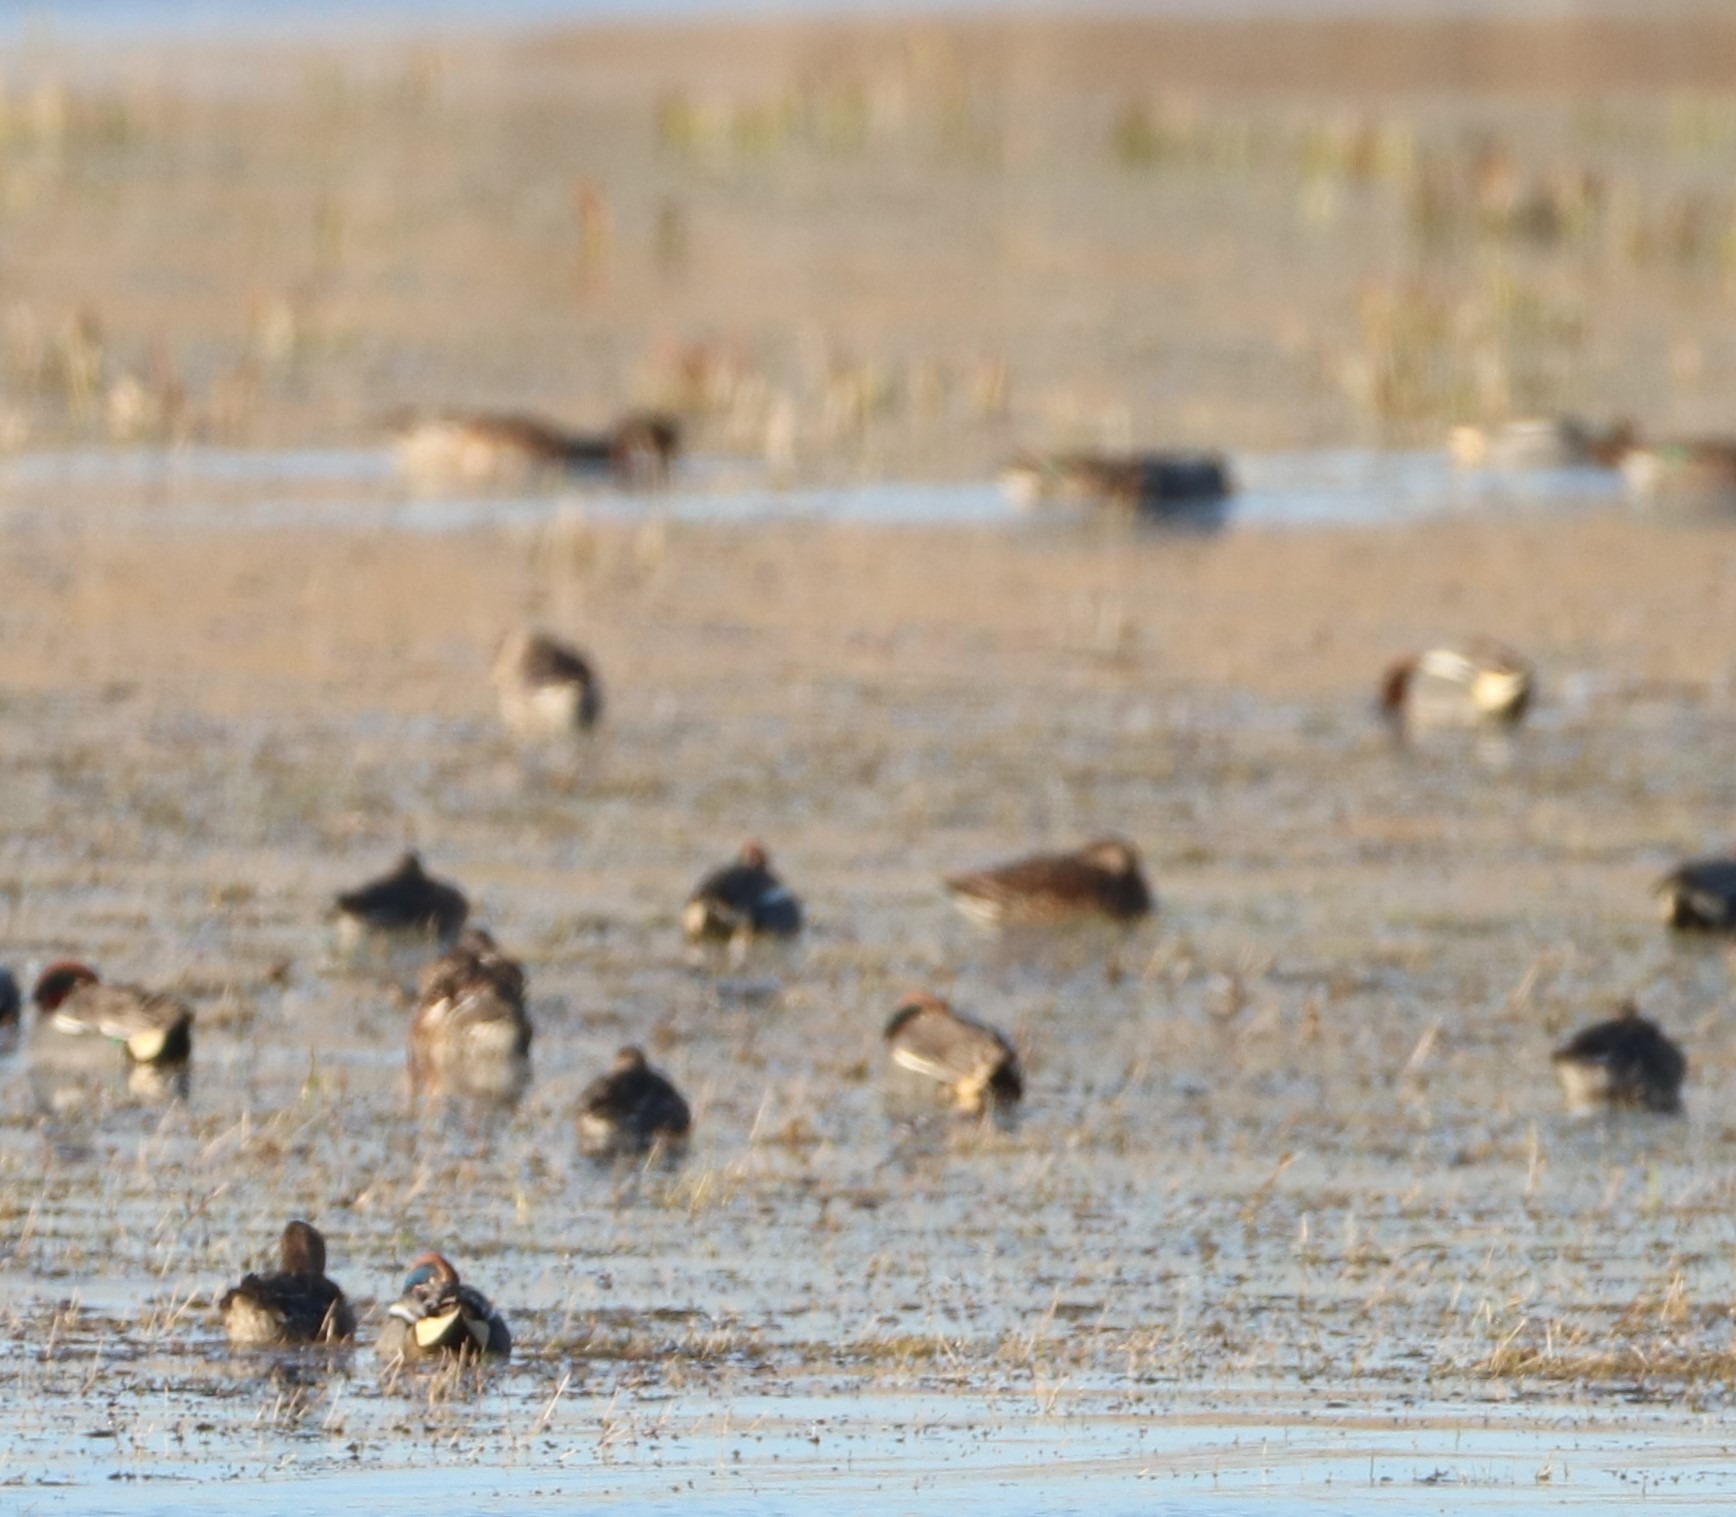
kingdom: Animalia
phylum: Chordata
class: Aves
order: Anseriformes
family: Anatidae
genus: Anas
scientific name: Anas crecca
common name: Krikand
